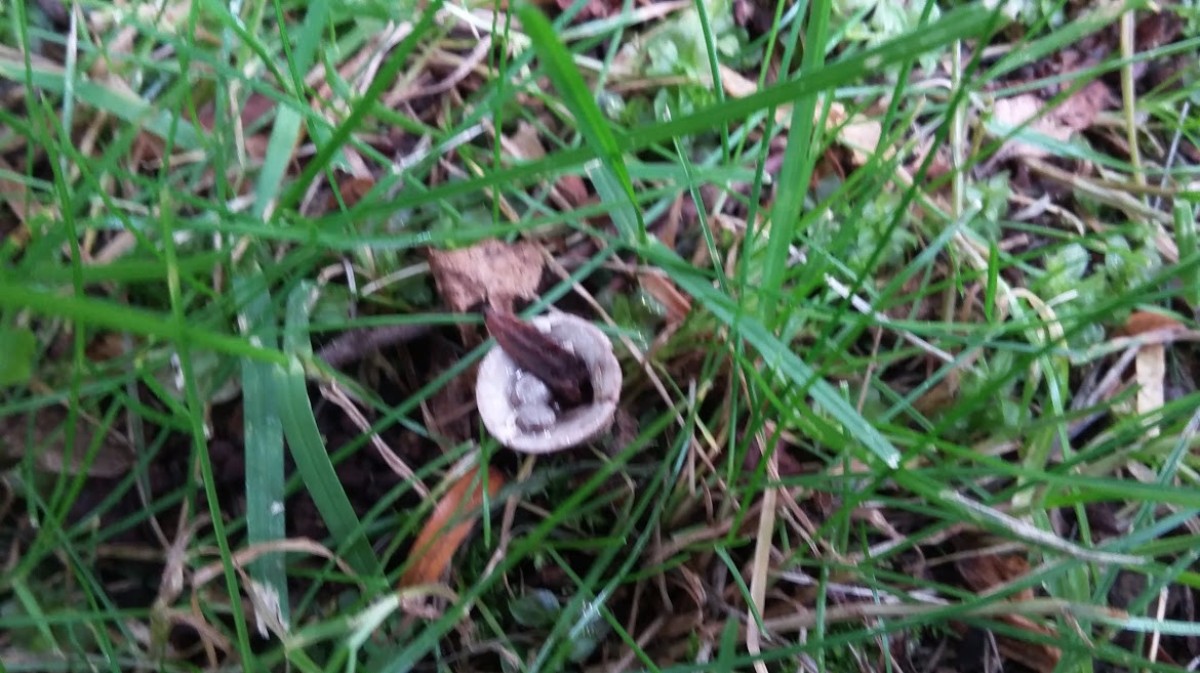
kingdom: Fungi
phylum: Basidiomycota
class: Agaricomycetes
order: Agaricales
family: Agaricaceae
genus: Cyathus
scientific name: Cyathus olla
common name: klokke-redesvamp
